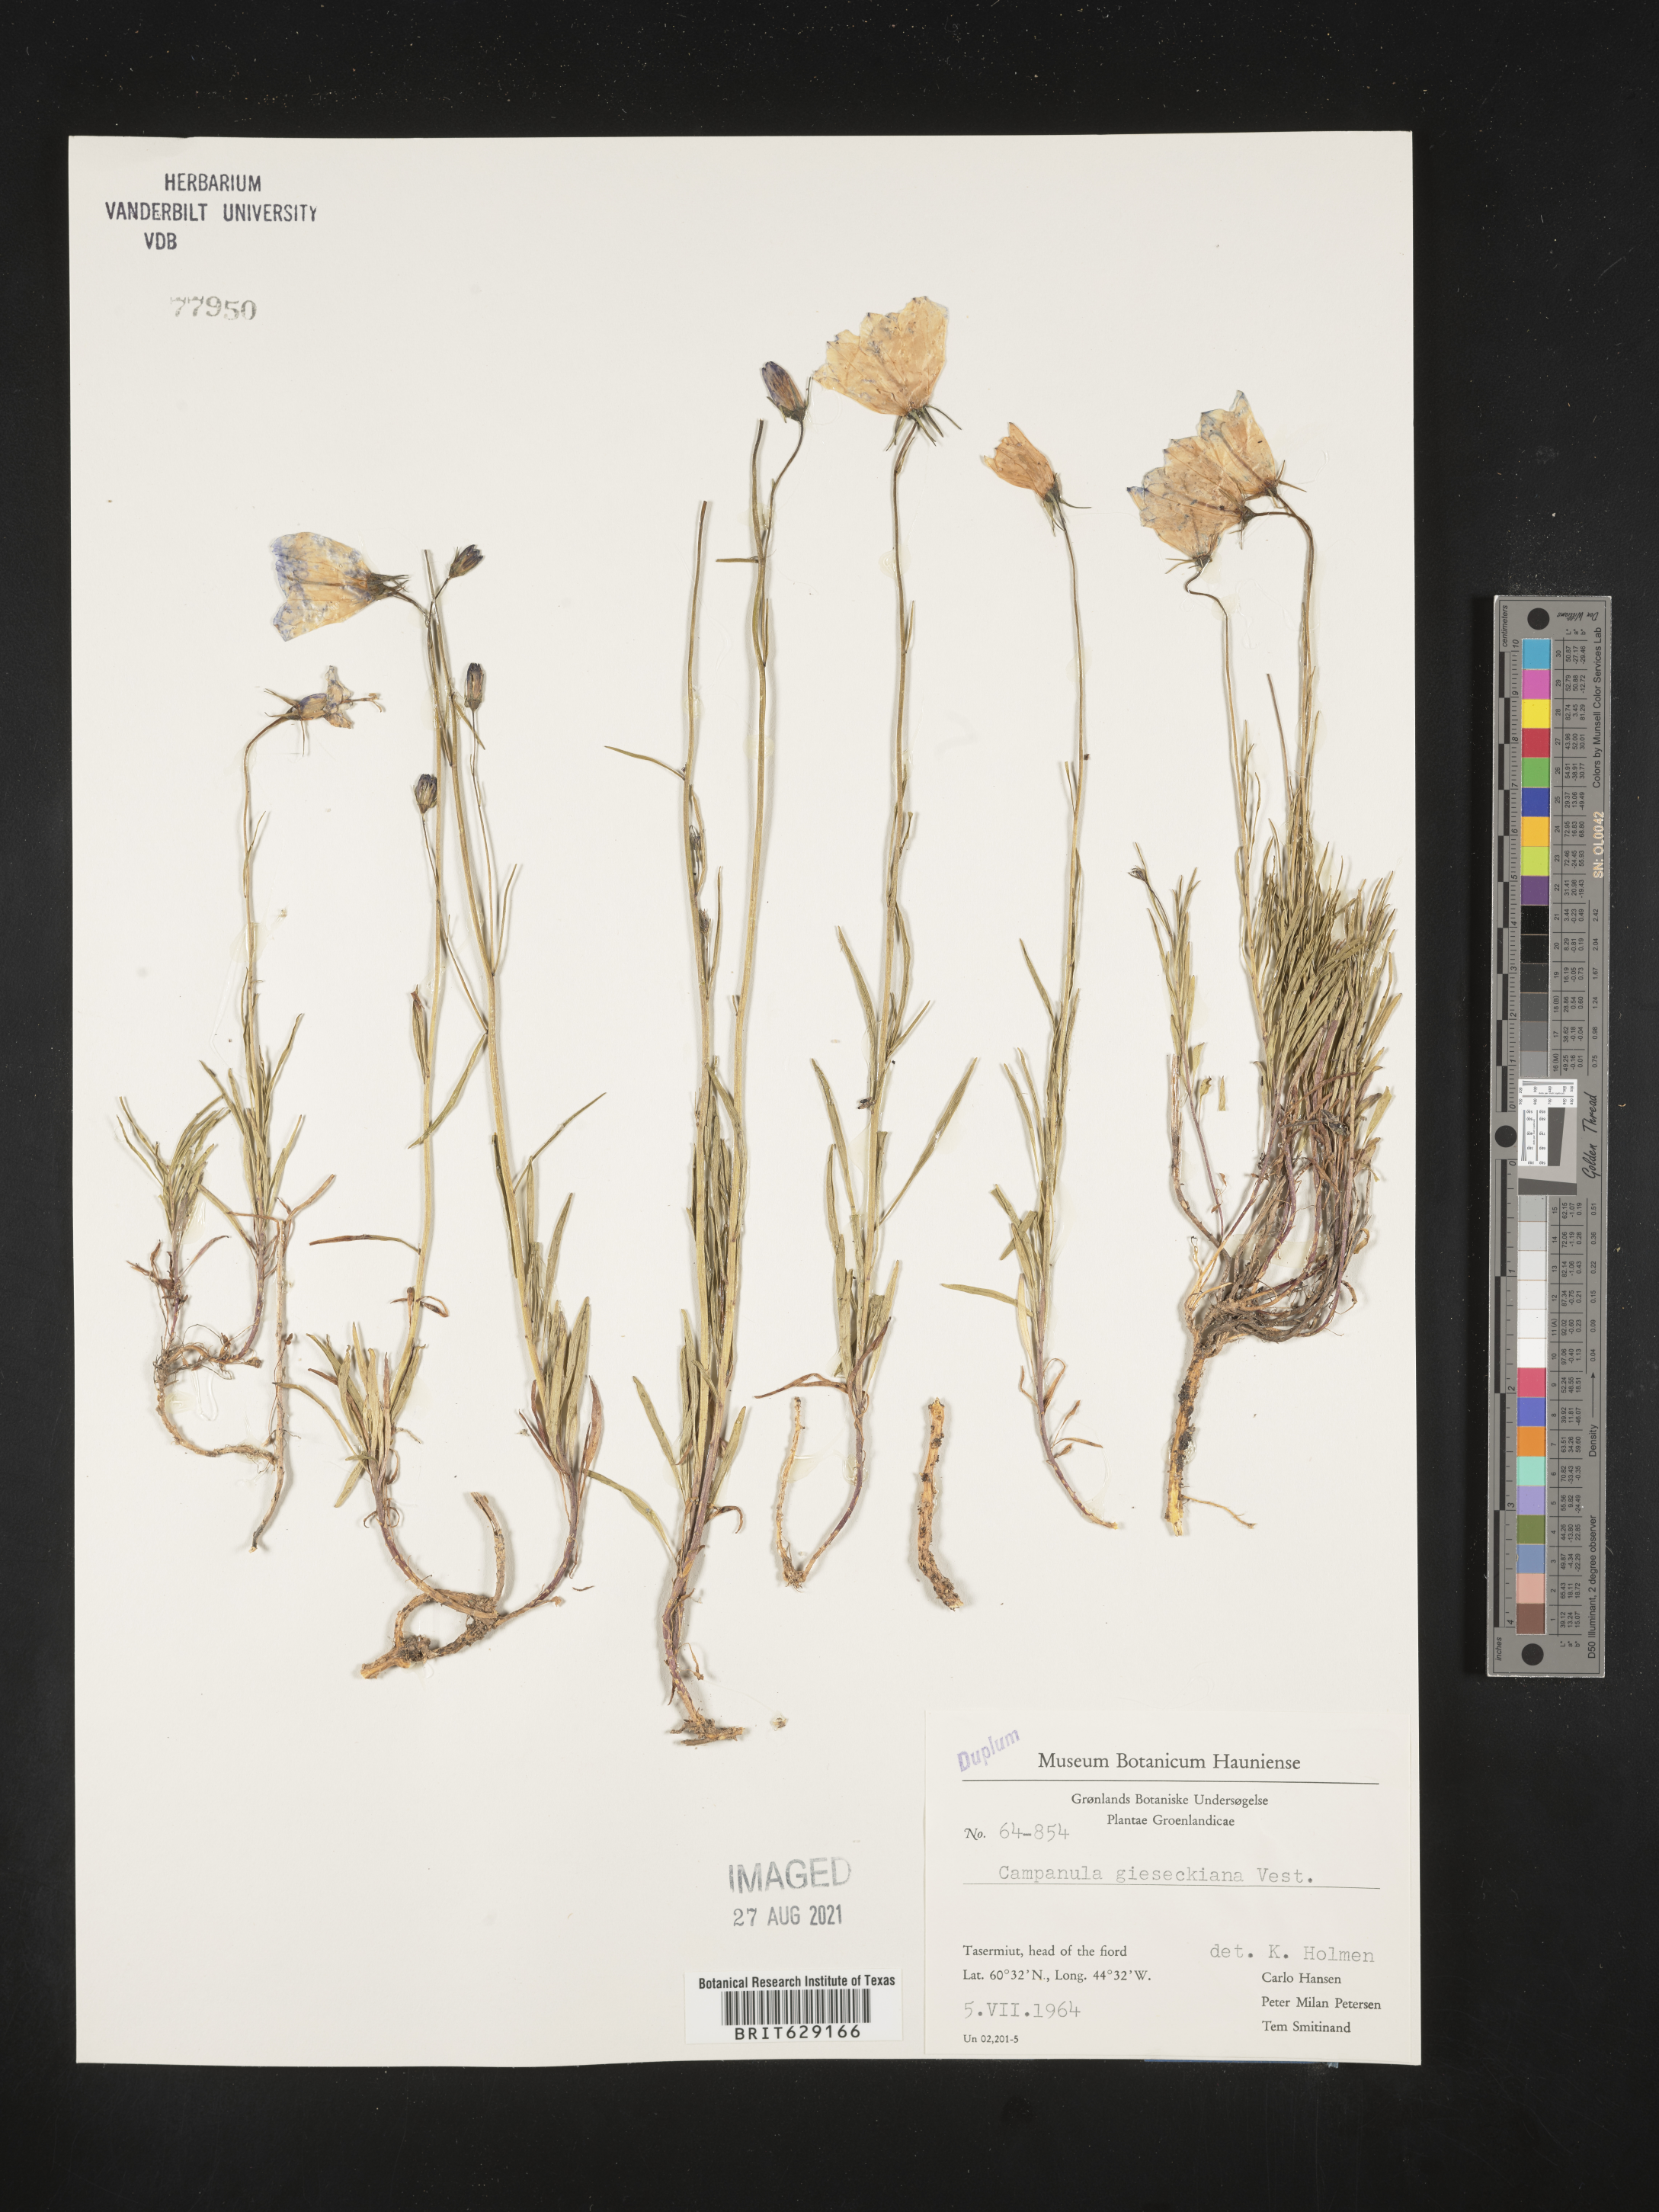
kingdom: Plantae
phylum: Tracheophyta
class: Magnoliopsida
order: Asterales
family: Campanulaceae
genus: Campanula
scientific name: Campanula rotundifolia
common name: Harebell
